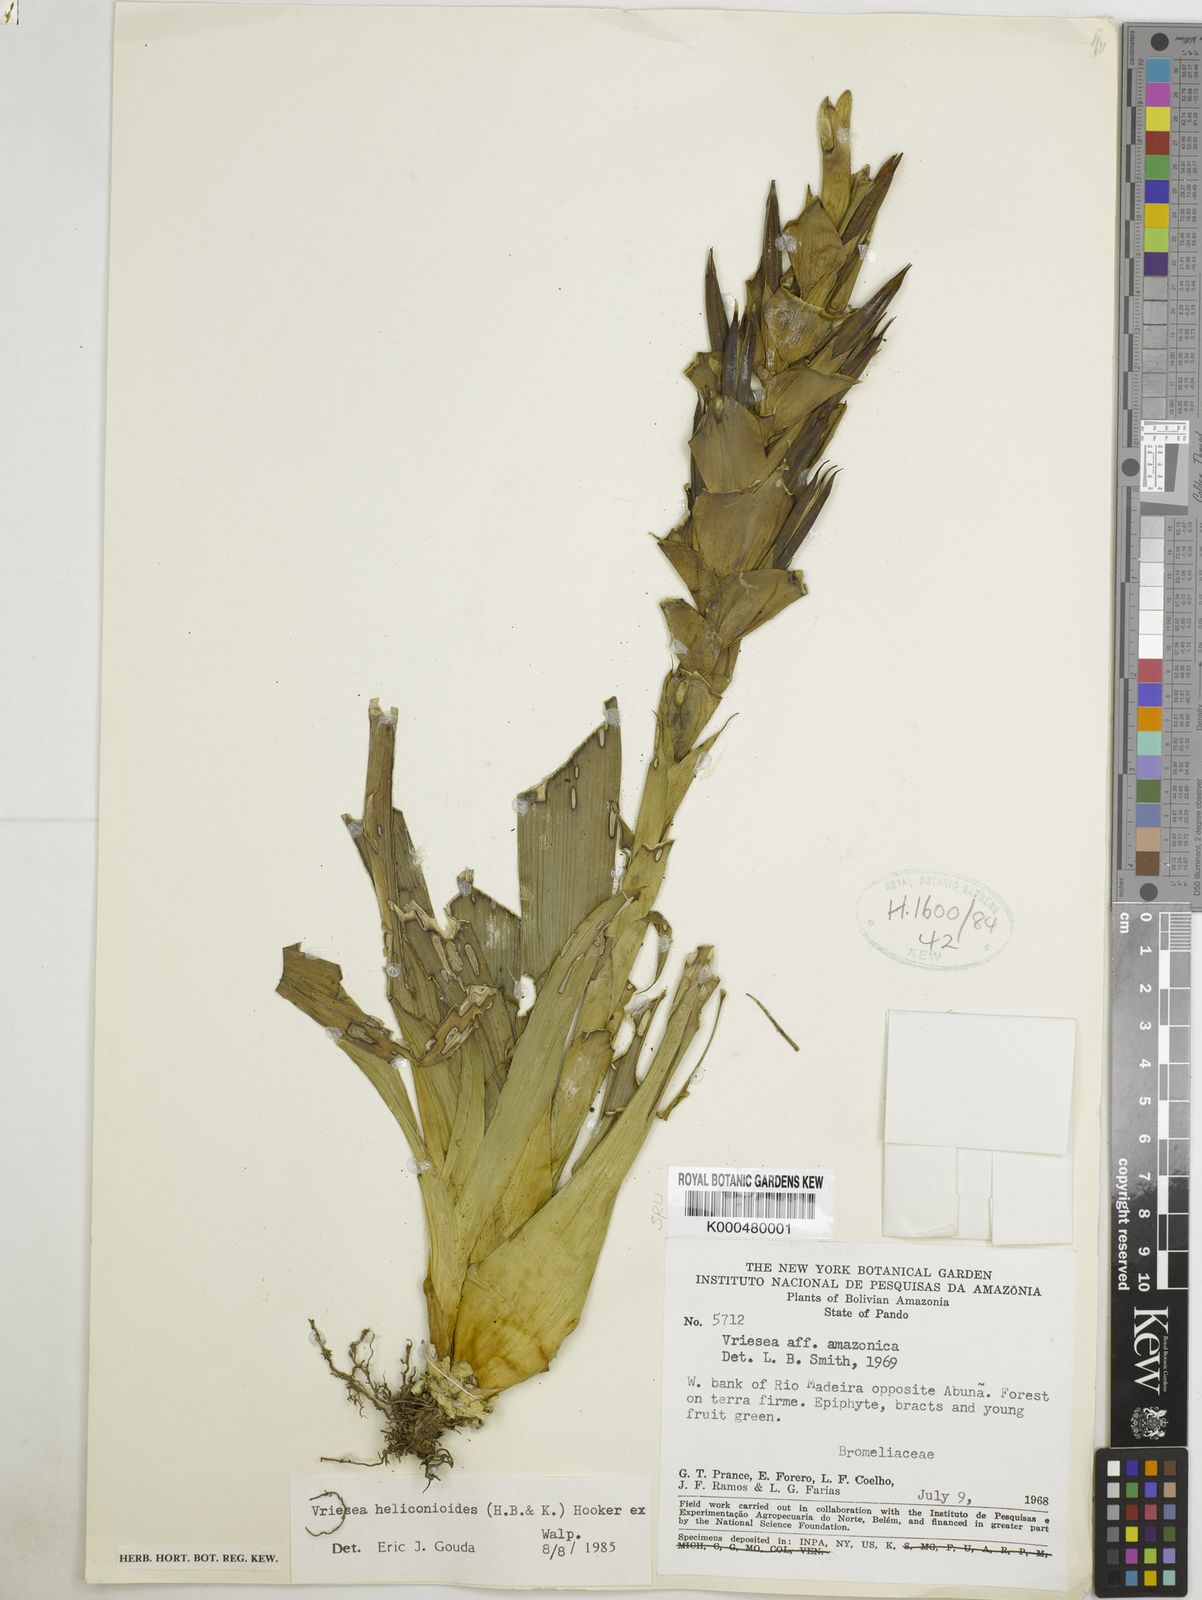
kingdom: Plantae
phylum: Tracheophyta
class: Liliopsida
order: Poales
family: Bromeliaceae
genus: Tillandsia
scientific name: Tillandsia heliconioides
